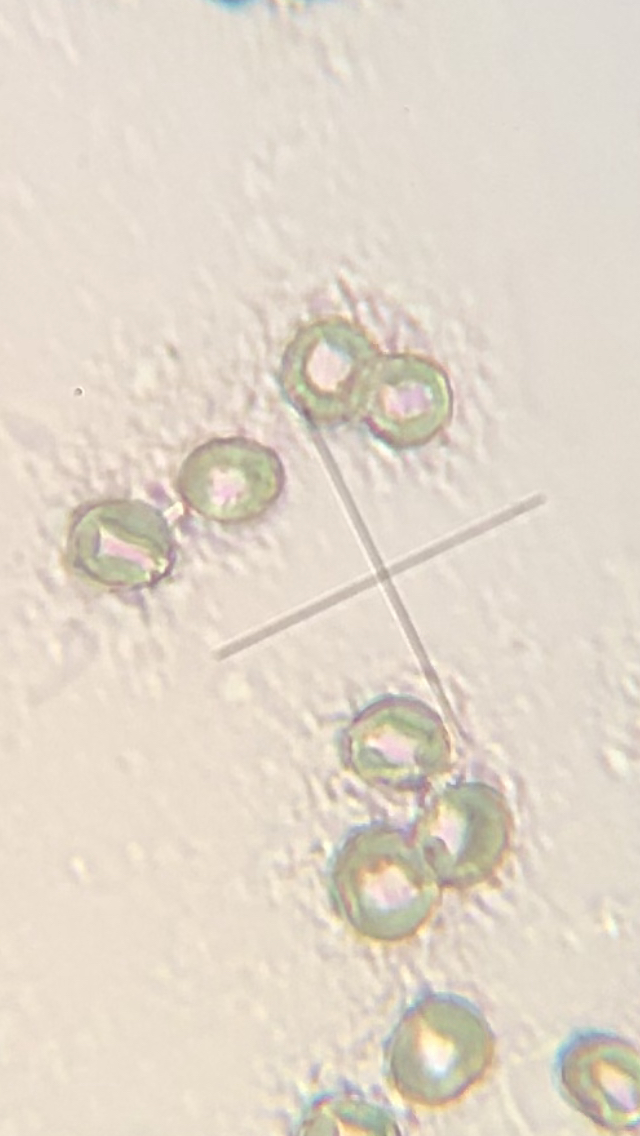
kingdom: Fungi
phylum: Basidiomycota
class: Agaricomycetes
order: Agaricales
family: Pluteaceae
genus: Pluteus
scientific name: Pluteus semibulbosus
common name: knoldet skærmhat
